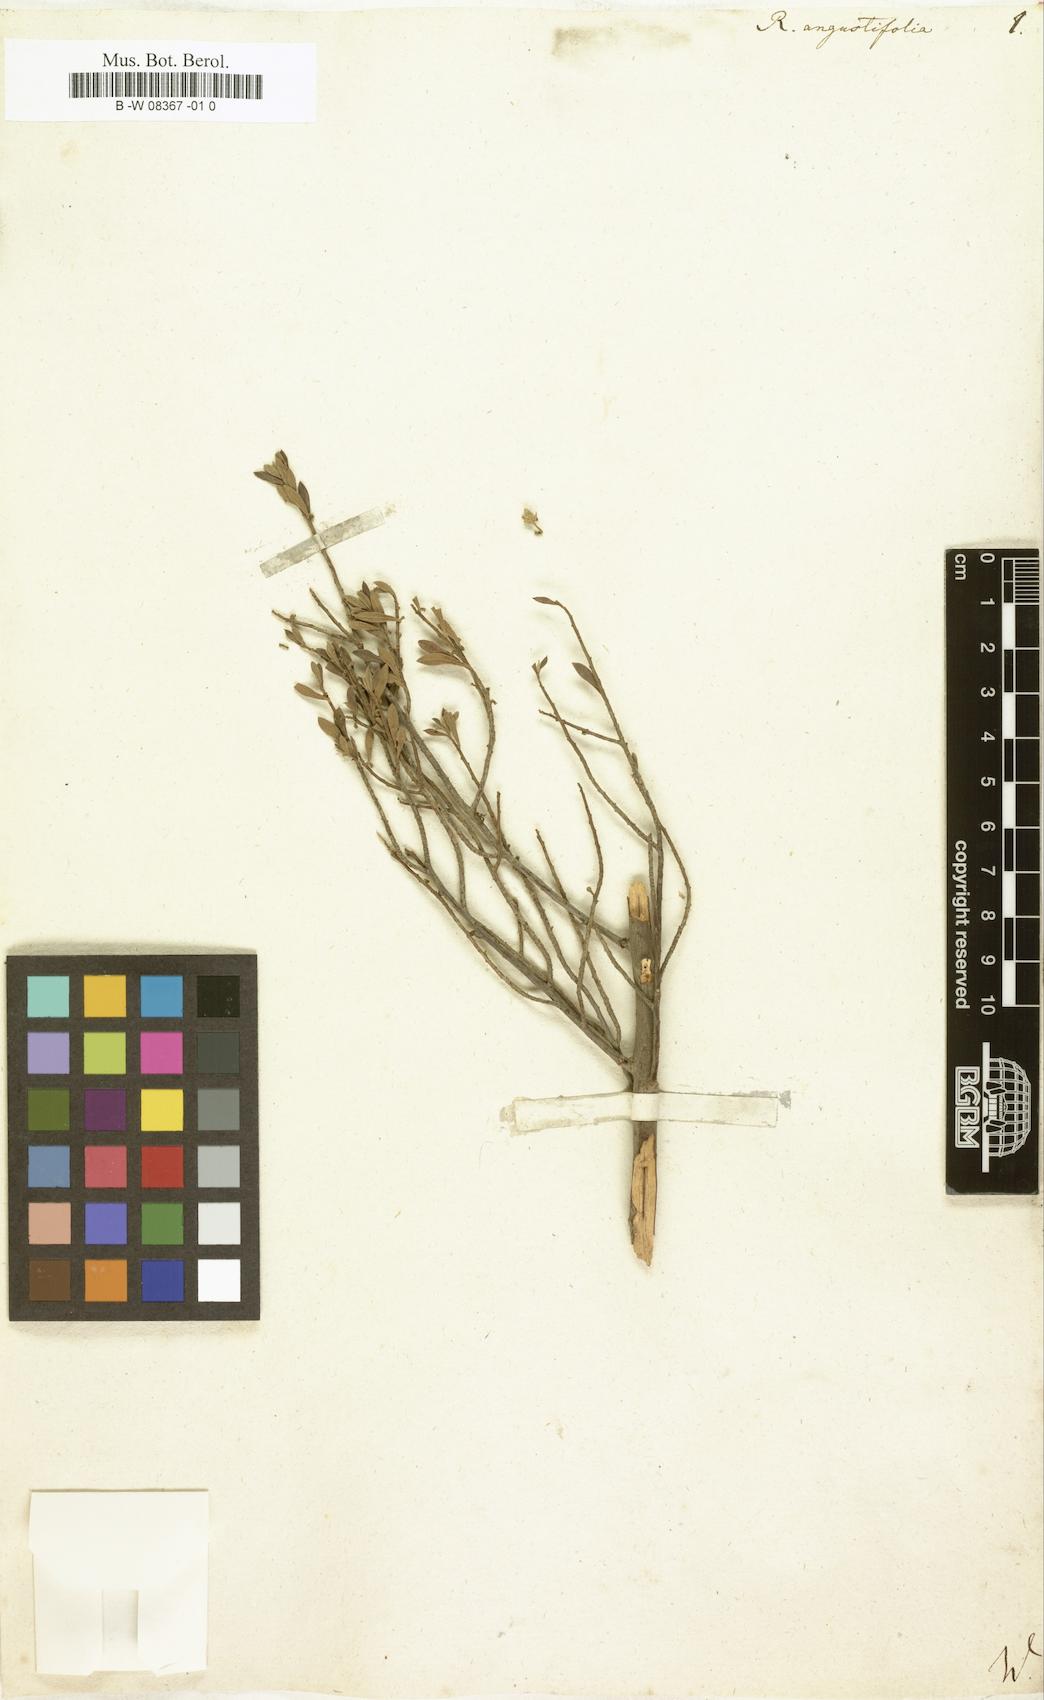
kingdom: Plantae
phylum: Tracheophyta
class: Magnoliopsida
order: Ericales
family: Ebenaceae
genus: Diospyros
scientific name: Diospyros
